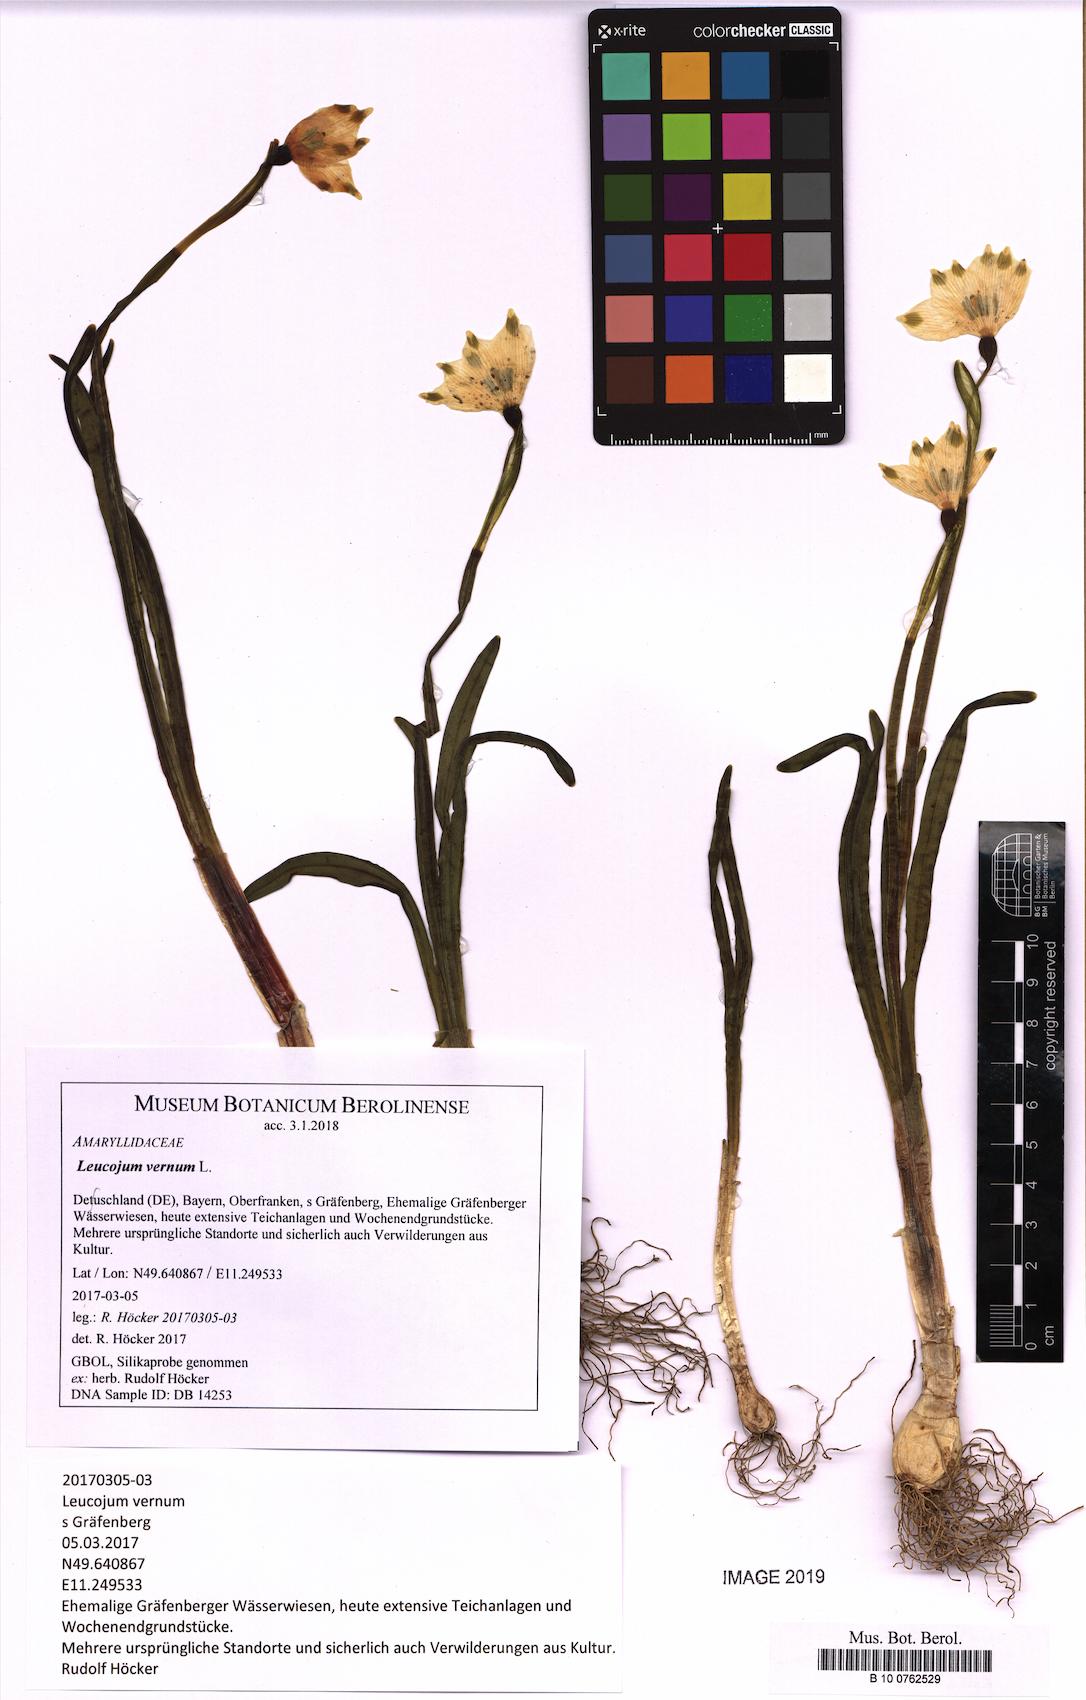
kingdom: Plantae
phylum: Tracheophyta
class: Liliopsida
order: Asparagales
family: Amaryllidaceae
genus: Leucojum
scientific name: Leucojum vernum
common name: Spring snowflake
